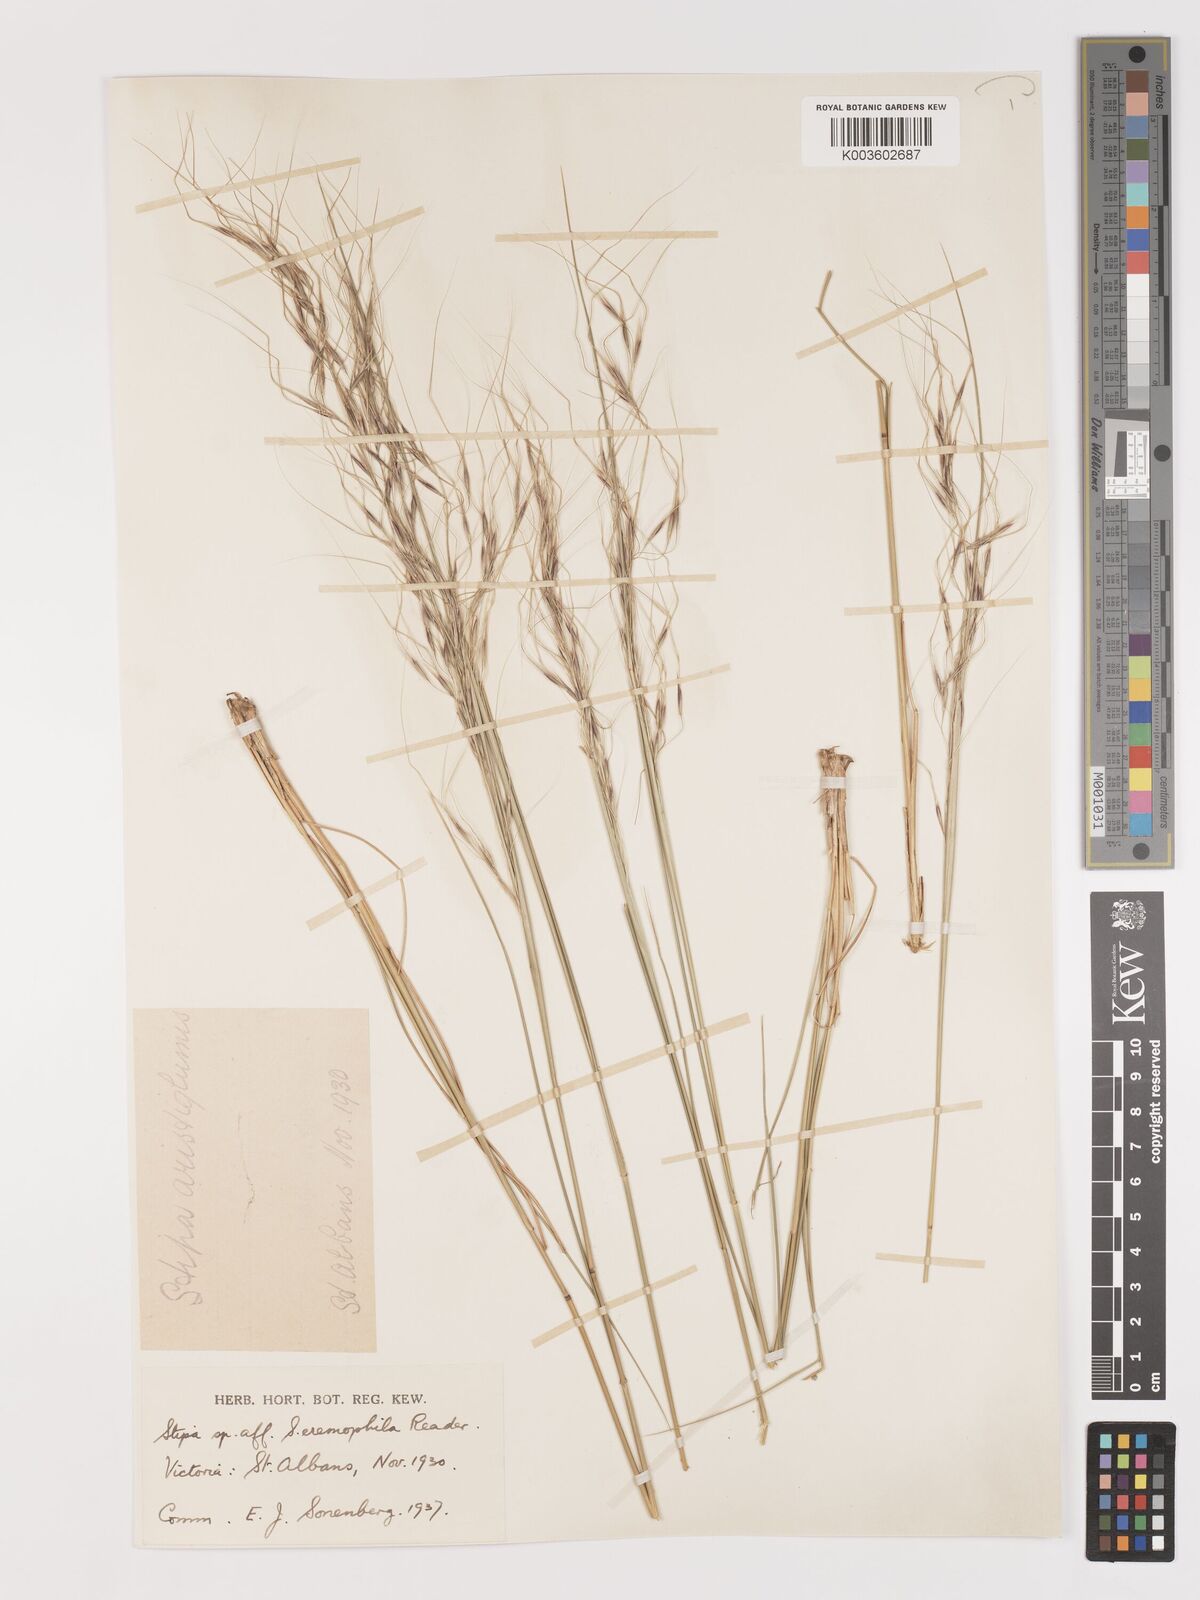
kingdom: Plantae
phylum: Tracheophyta
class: Liliopsida
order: Poales
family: Poaceae
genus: Austrostipa
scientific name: Austrostipa eremophila
